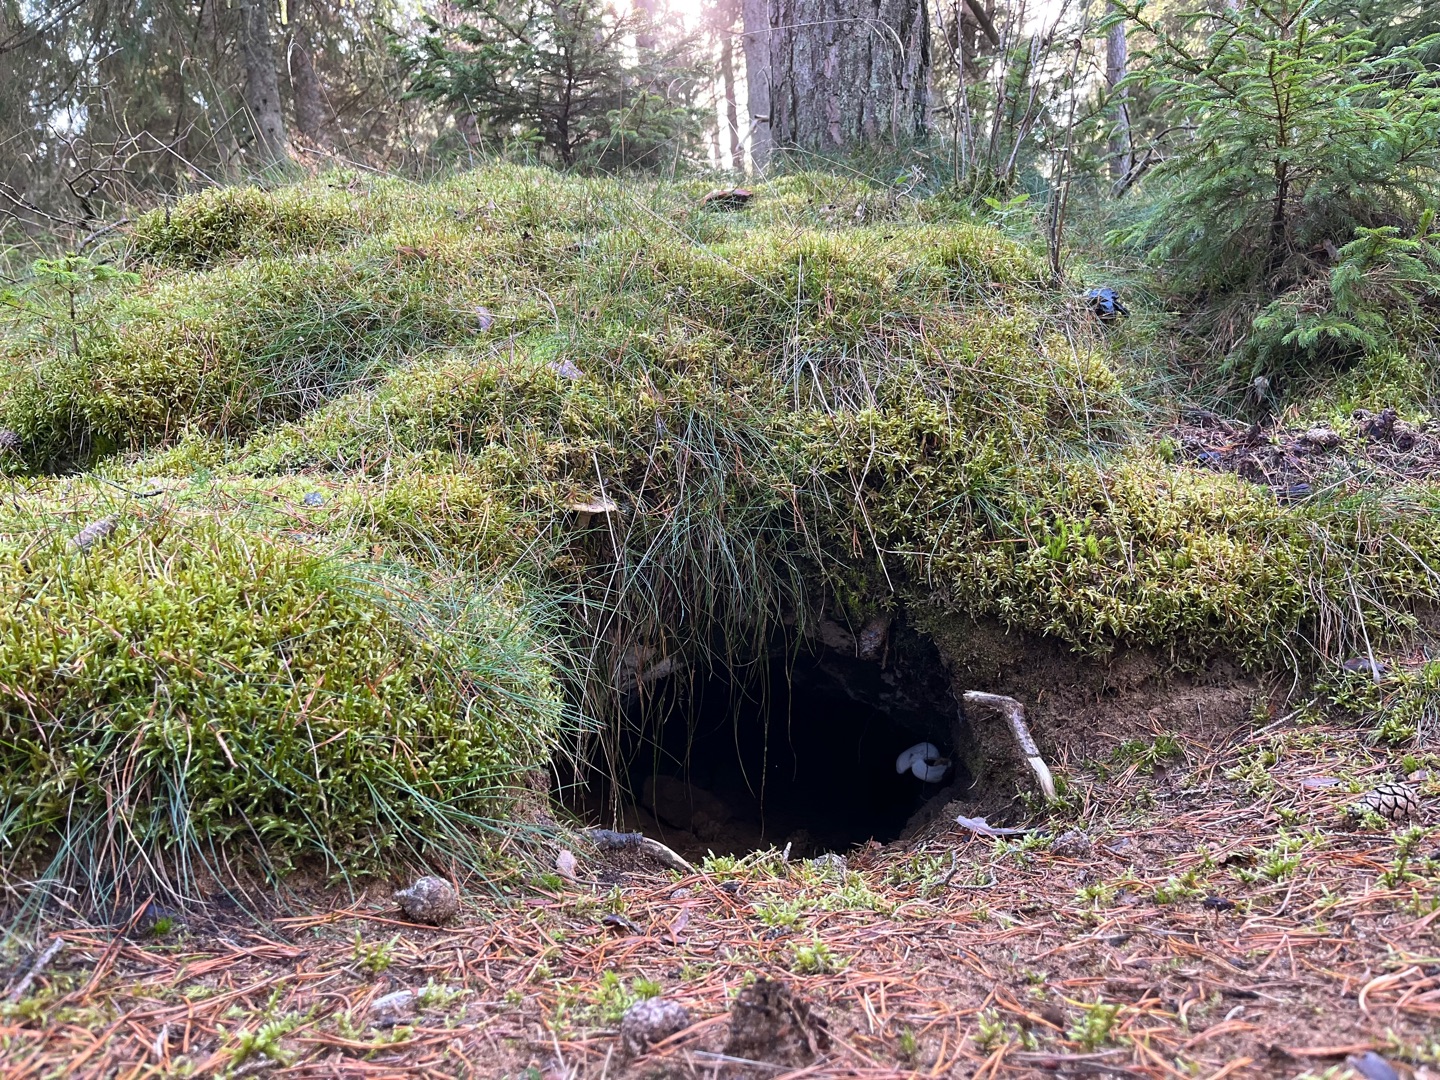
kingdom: Animalia
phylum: Chordata
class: Mammalia
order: Carnivora
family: Canidae
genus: Vulpes
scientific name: Vulpes vulpes
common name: Ræv
